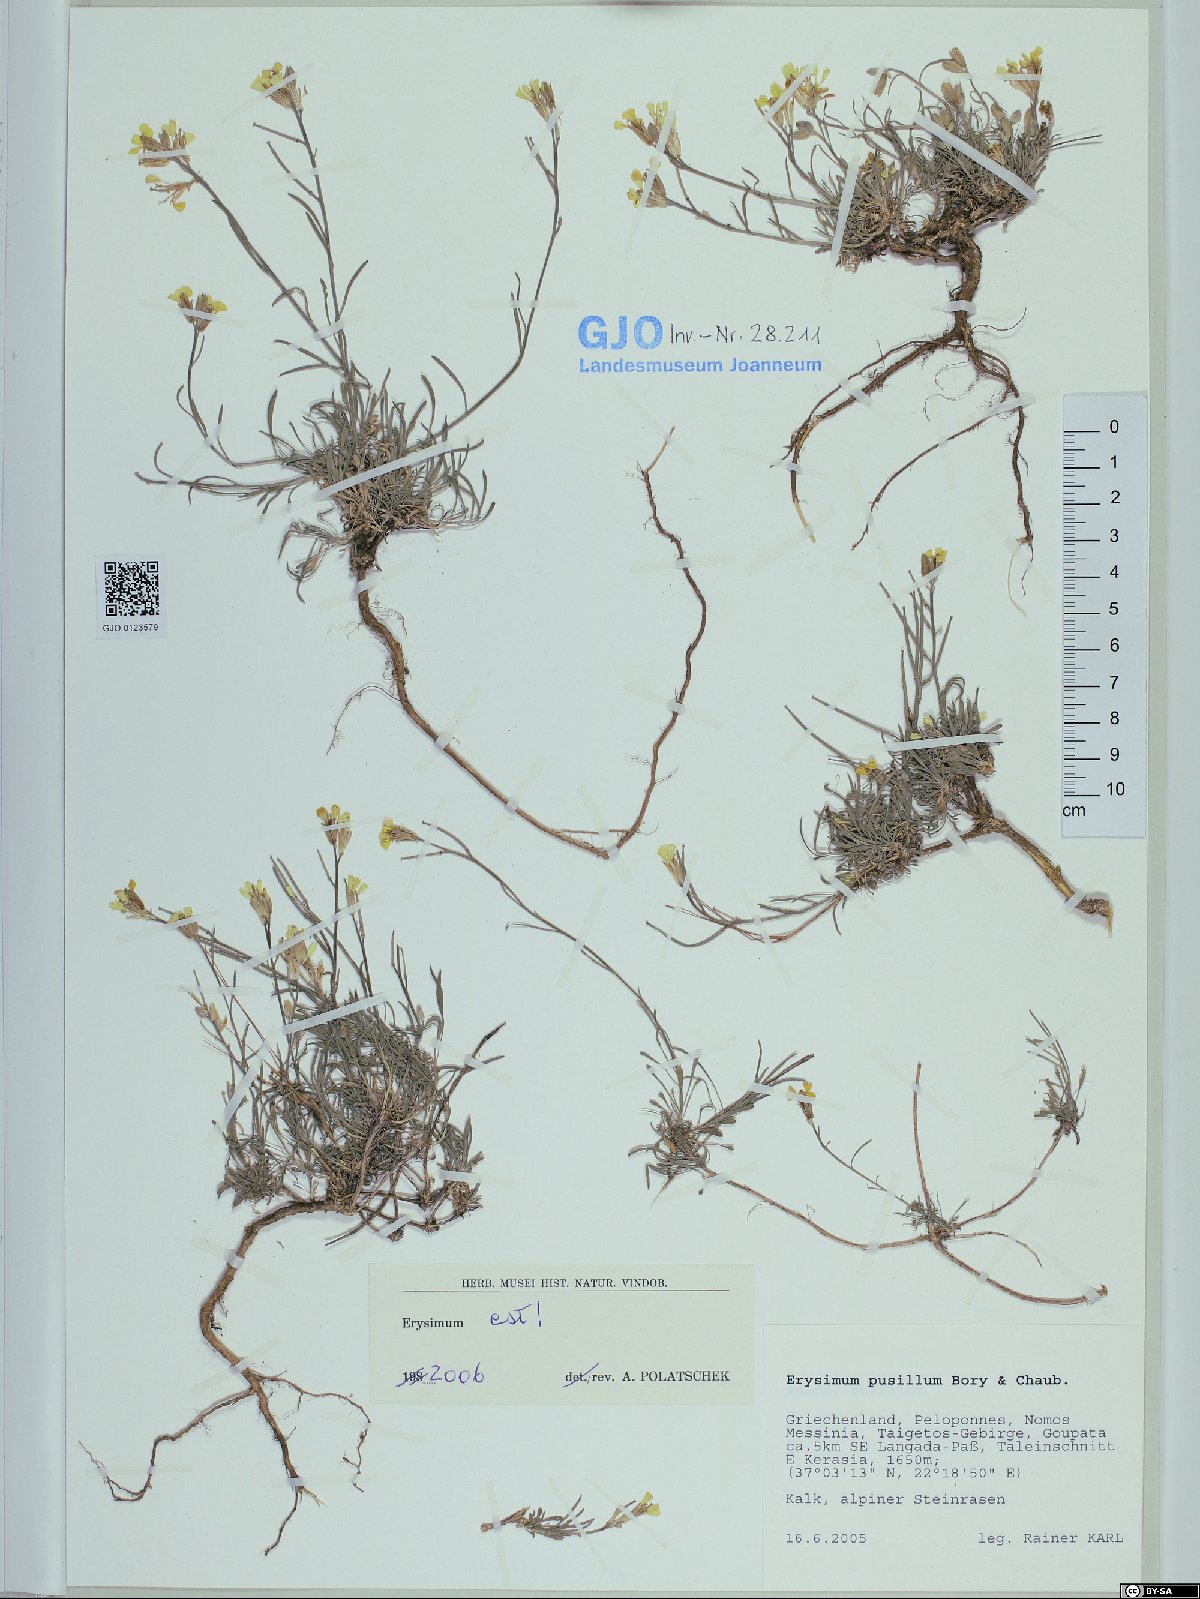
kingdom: Plantae
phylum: Tracheophyta
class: Magnoliopsida
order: Brassicales
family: Brassicaceae
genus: Erysimum
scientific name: Erysimum pusillum
